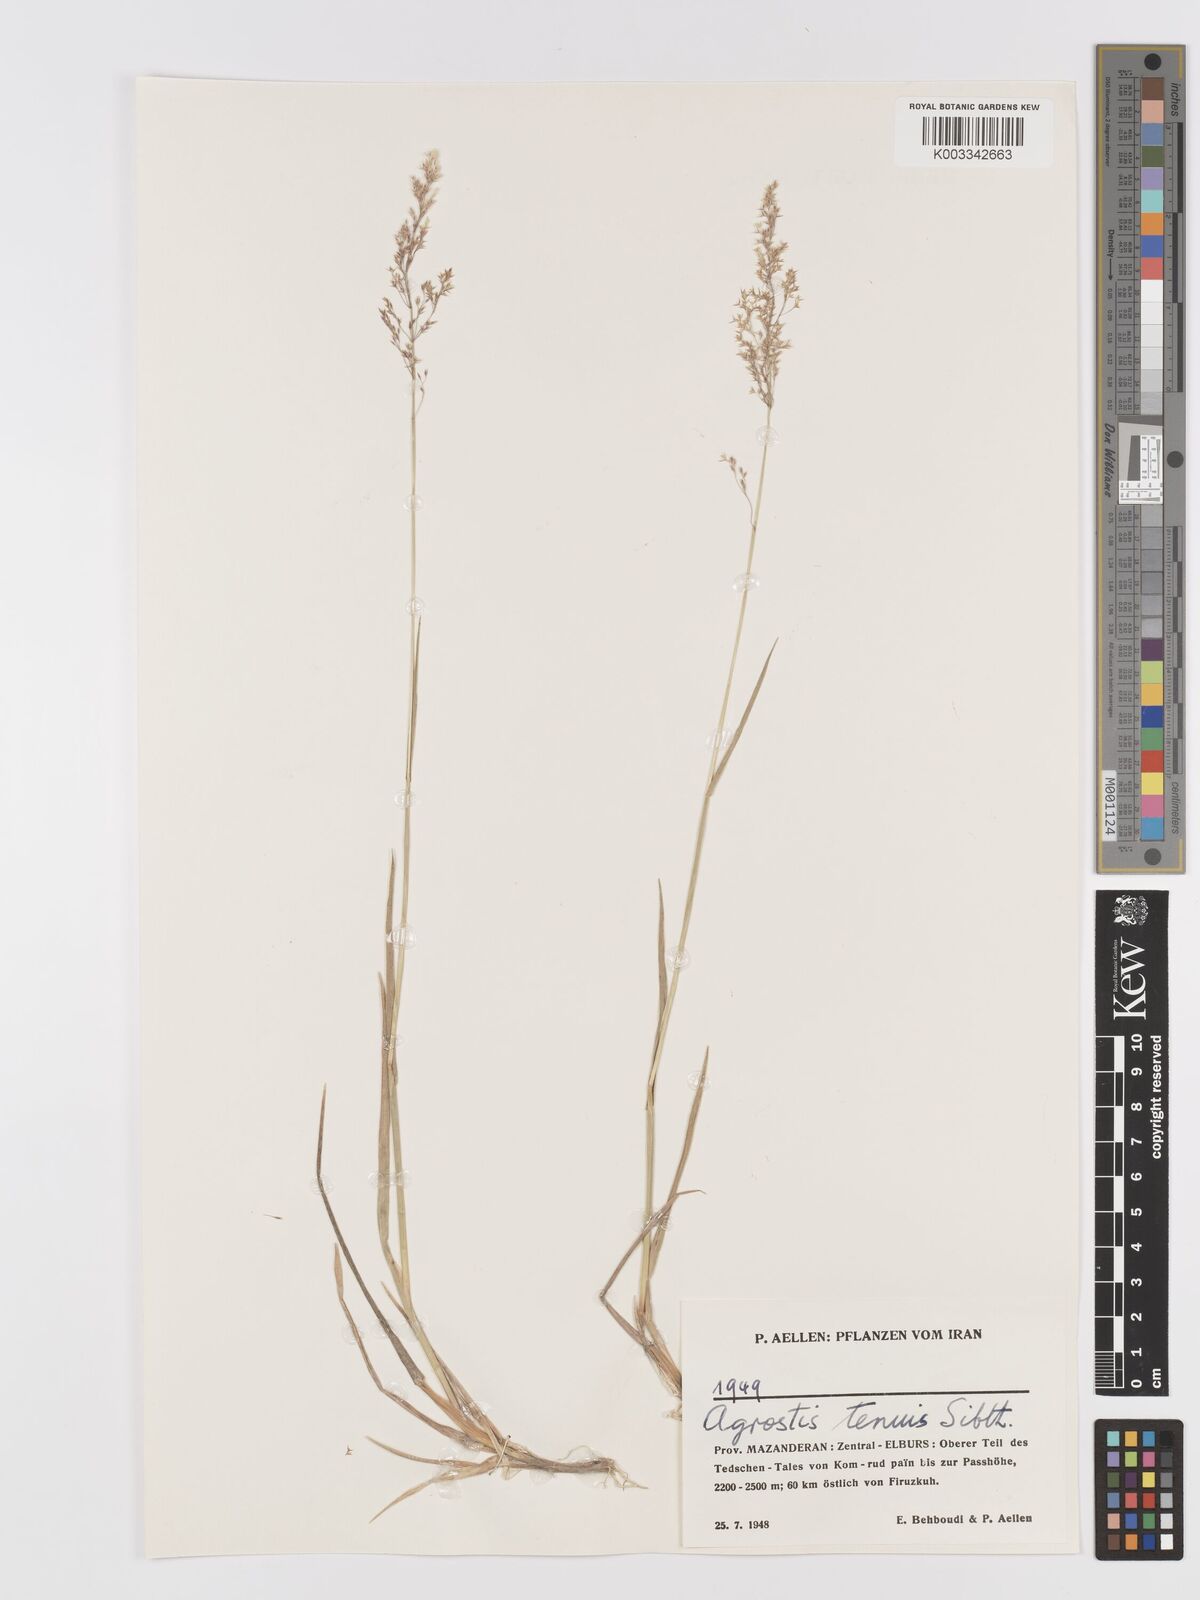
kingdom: Plantae
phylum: Tracheophyta
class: Liliopsida
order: Poales
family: Poaceae
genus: Agrostis
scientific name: Agrostis capillaris
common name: Colonial bentgrass
